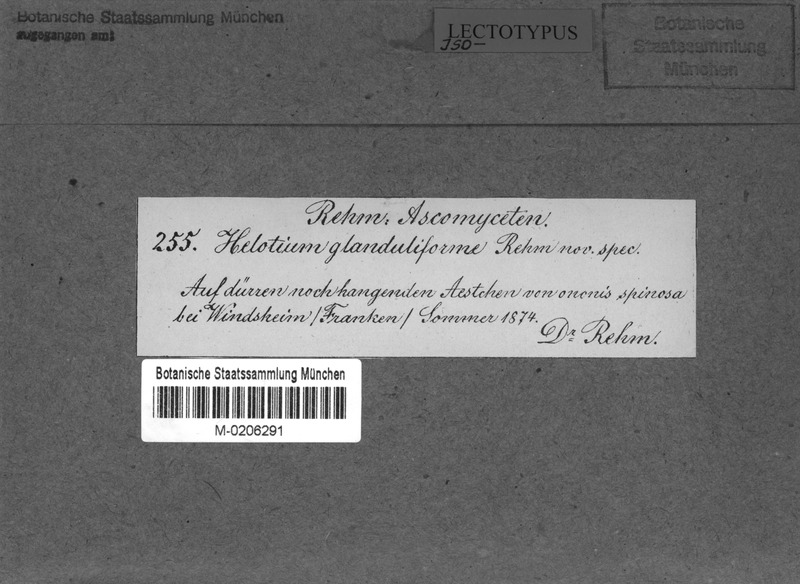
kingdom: Fungi
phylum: Ascomycota
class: Leotiomycetes
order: Helotiales
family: Helotiaceae
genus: Cyathicula
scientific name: Cyathicula cyathoidea
